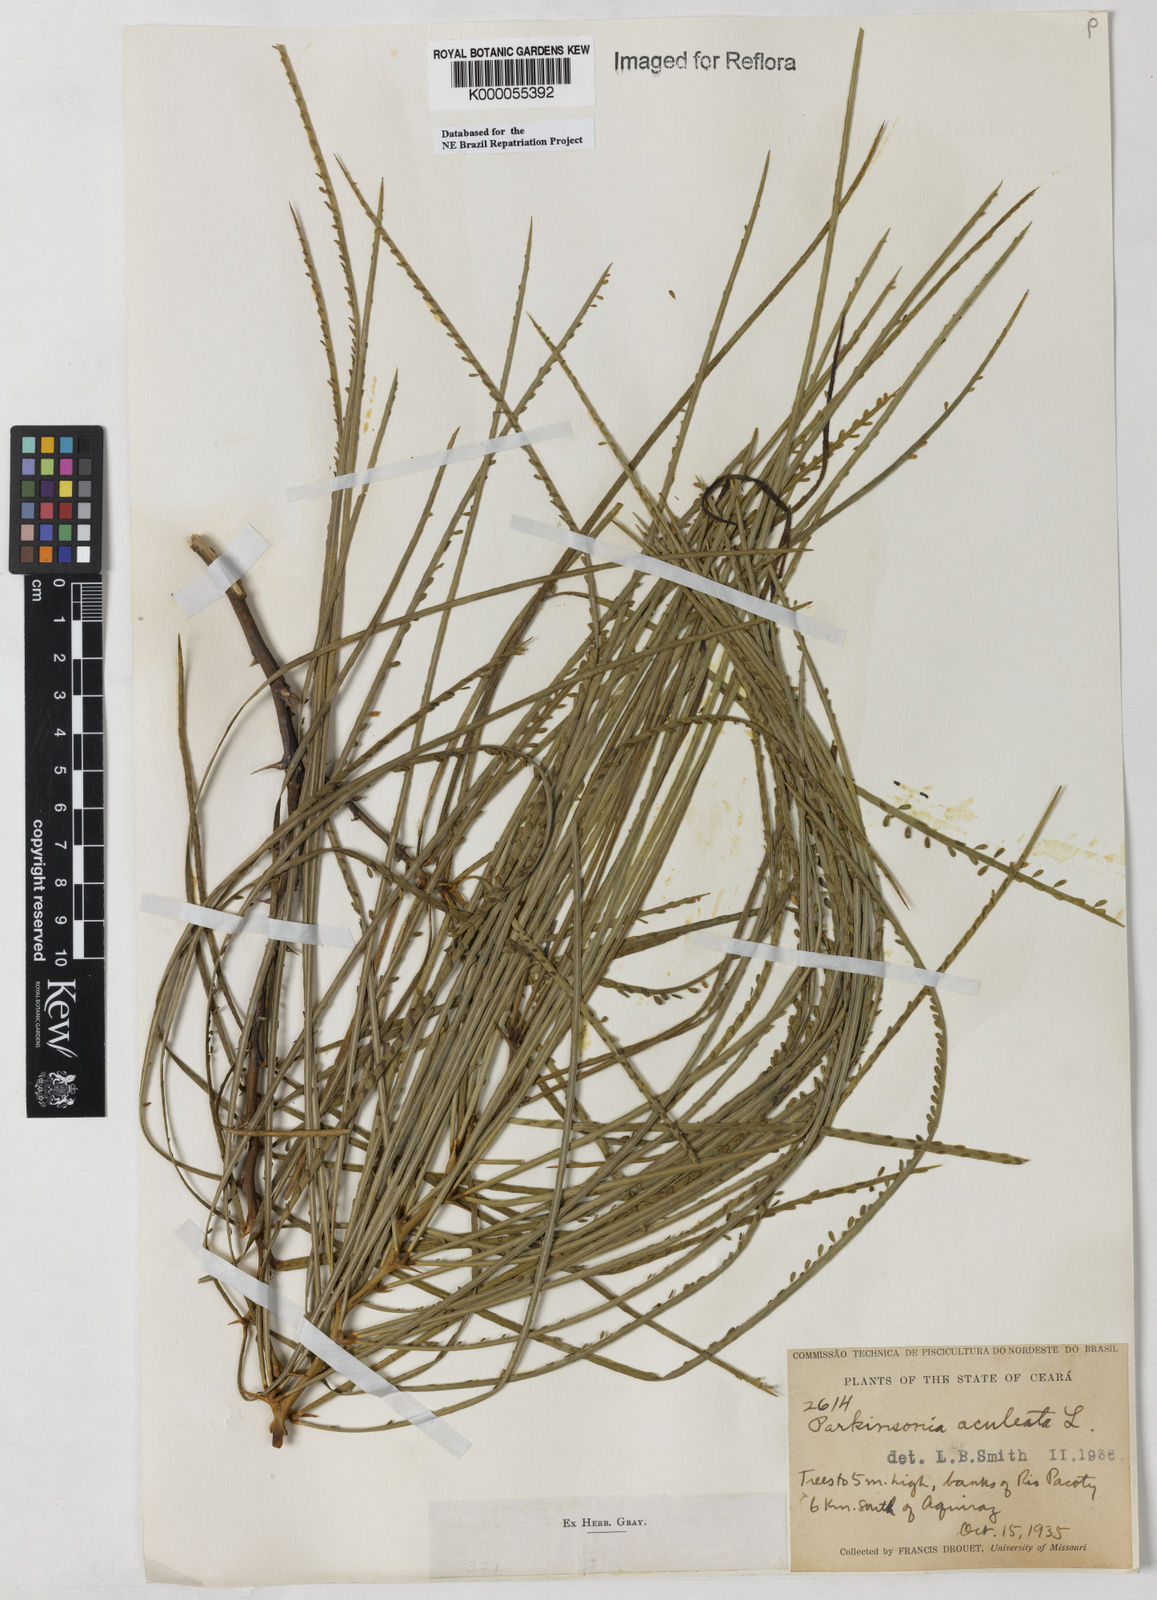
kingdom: Plantae
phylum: Tracheophyta
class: Magnoliopsida
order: Fabales
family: Fabaceae
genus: Parkinsonia
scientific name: Parkinsonia aculeata
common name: Jerusalem thorn
